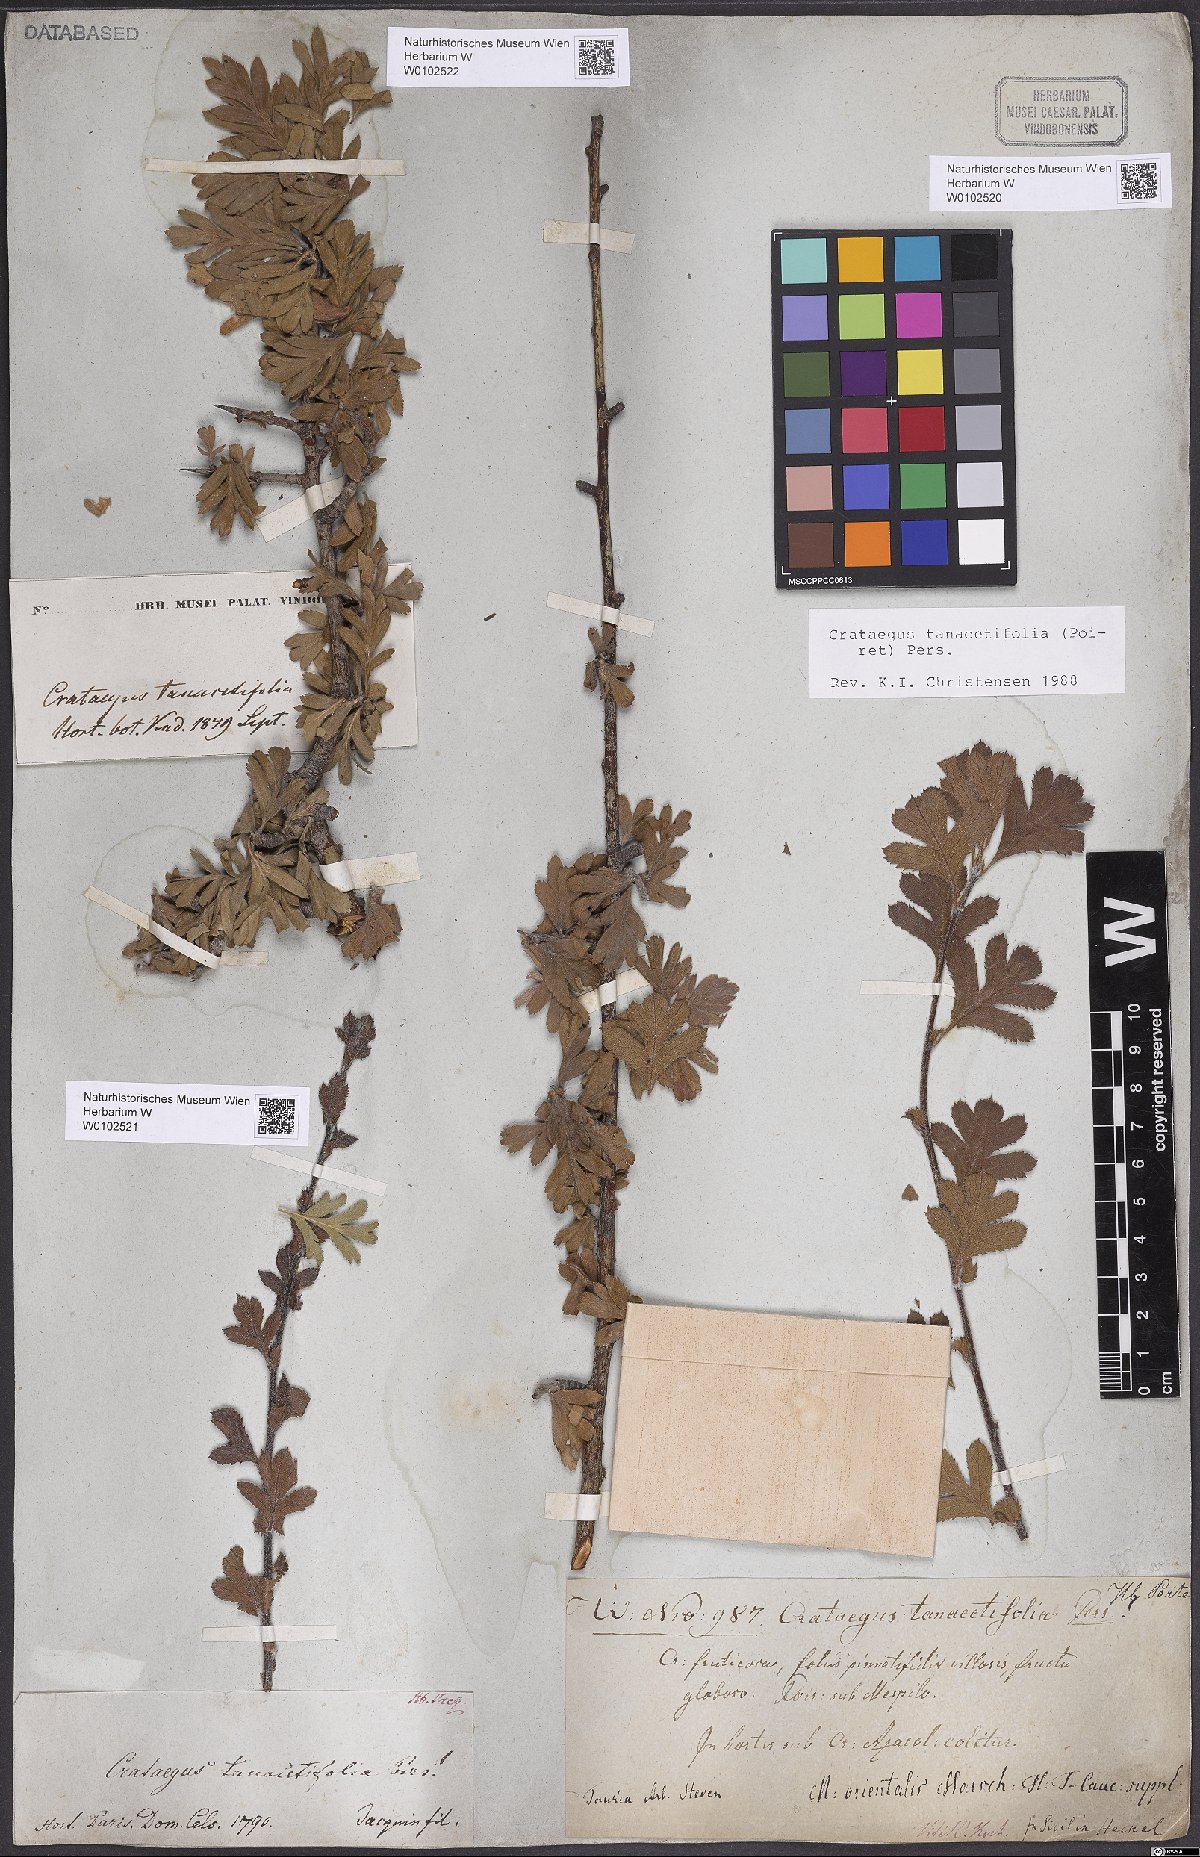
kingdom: Plantae
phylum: Tracheophyta
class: Magnoliopsida
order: Rosales
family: Rosaceae
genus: Crataegus
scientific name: Crataegus tanacetifolia
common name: Tansy-leaved thorn
